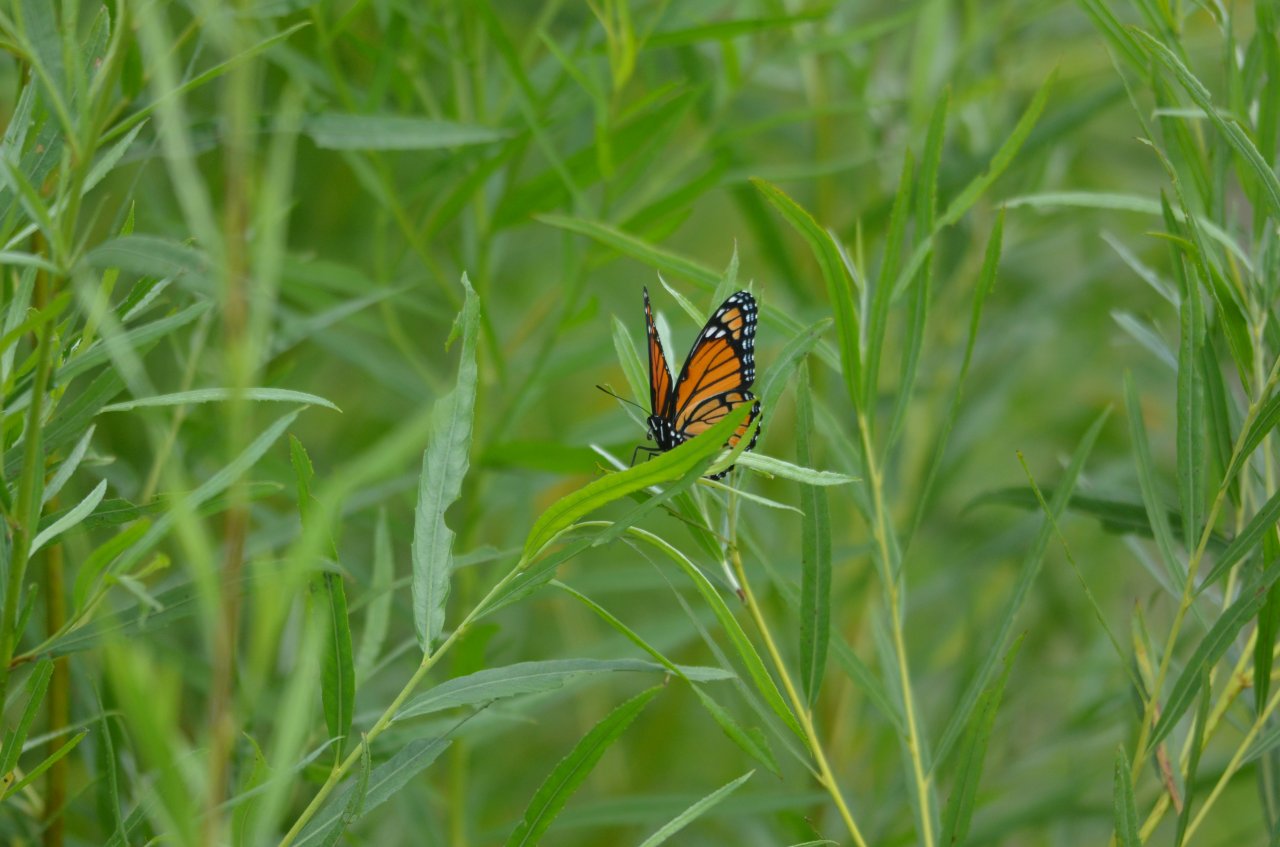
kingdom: Animalia
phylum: Arthropoda
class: Insecta
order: Lepidoptera
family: Nymphalidae
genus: Limenitis
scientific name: Limenitis archippus
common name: Viceroy
